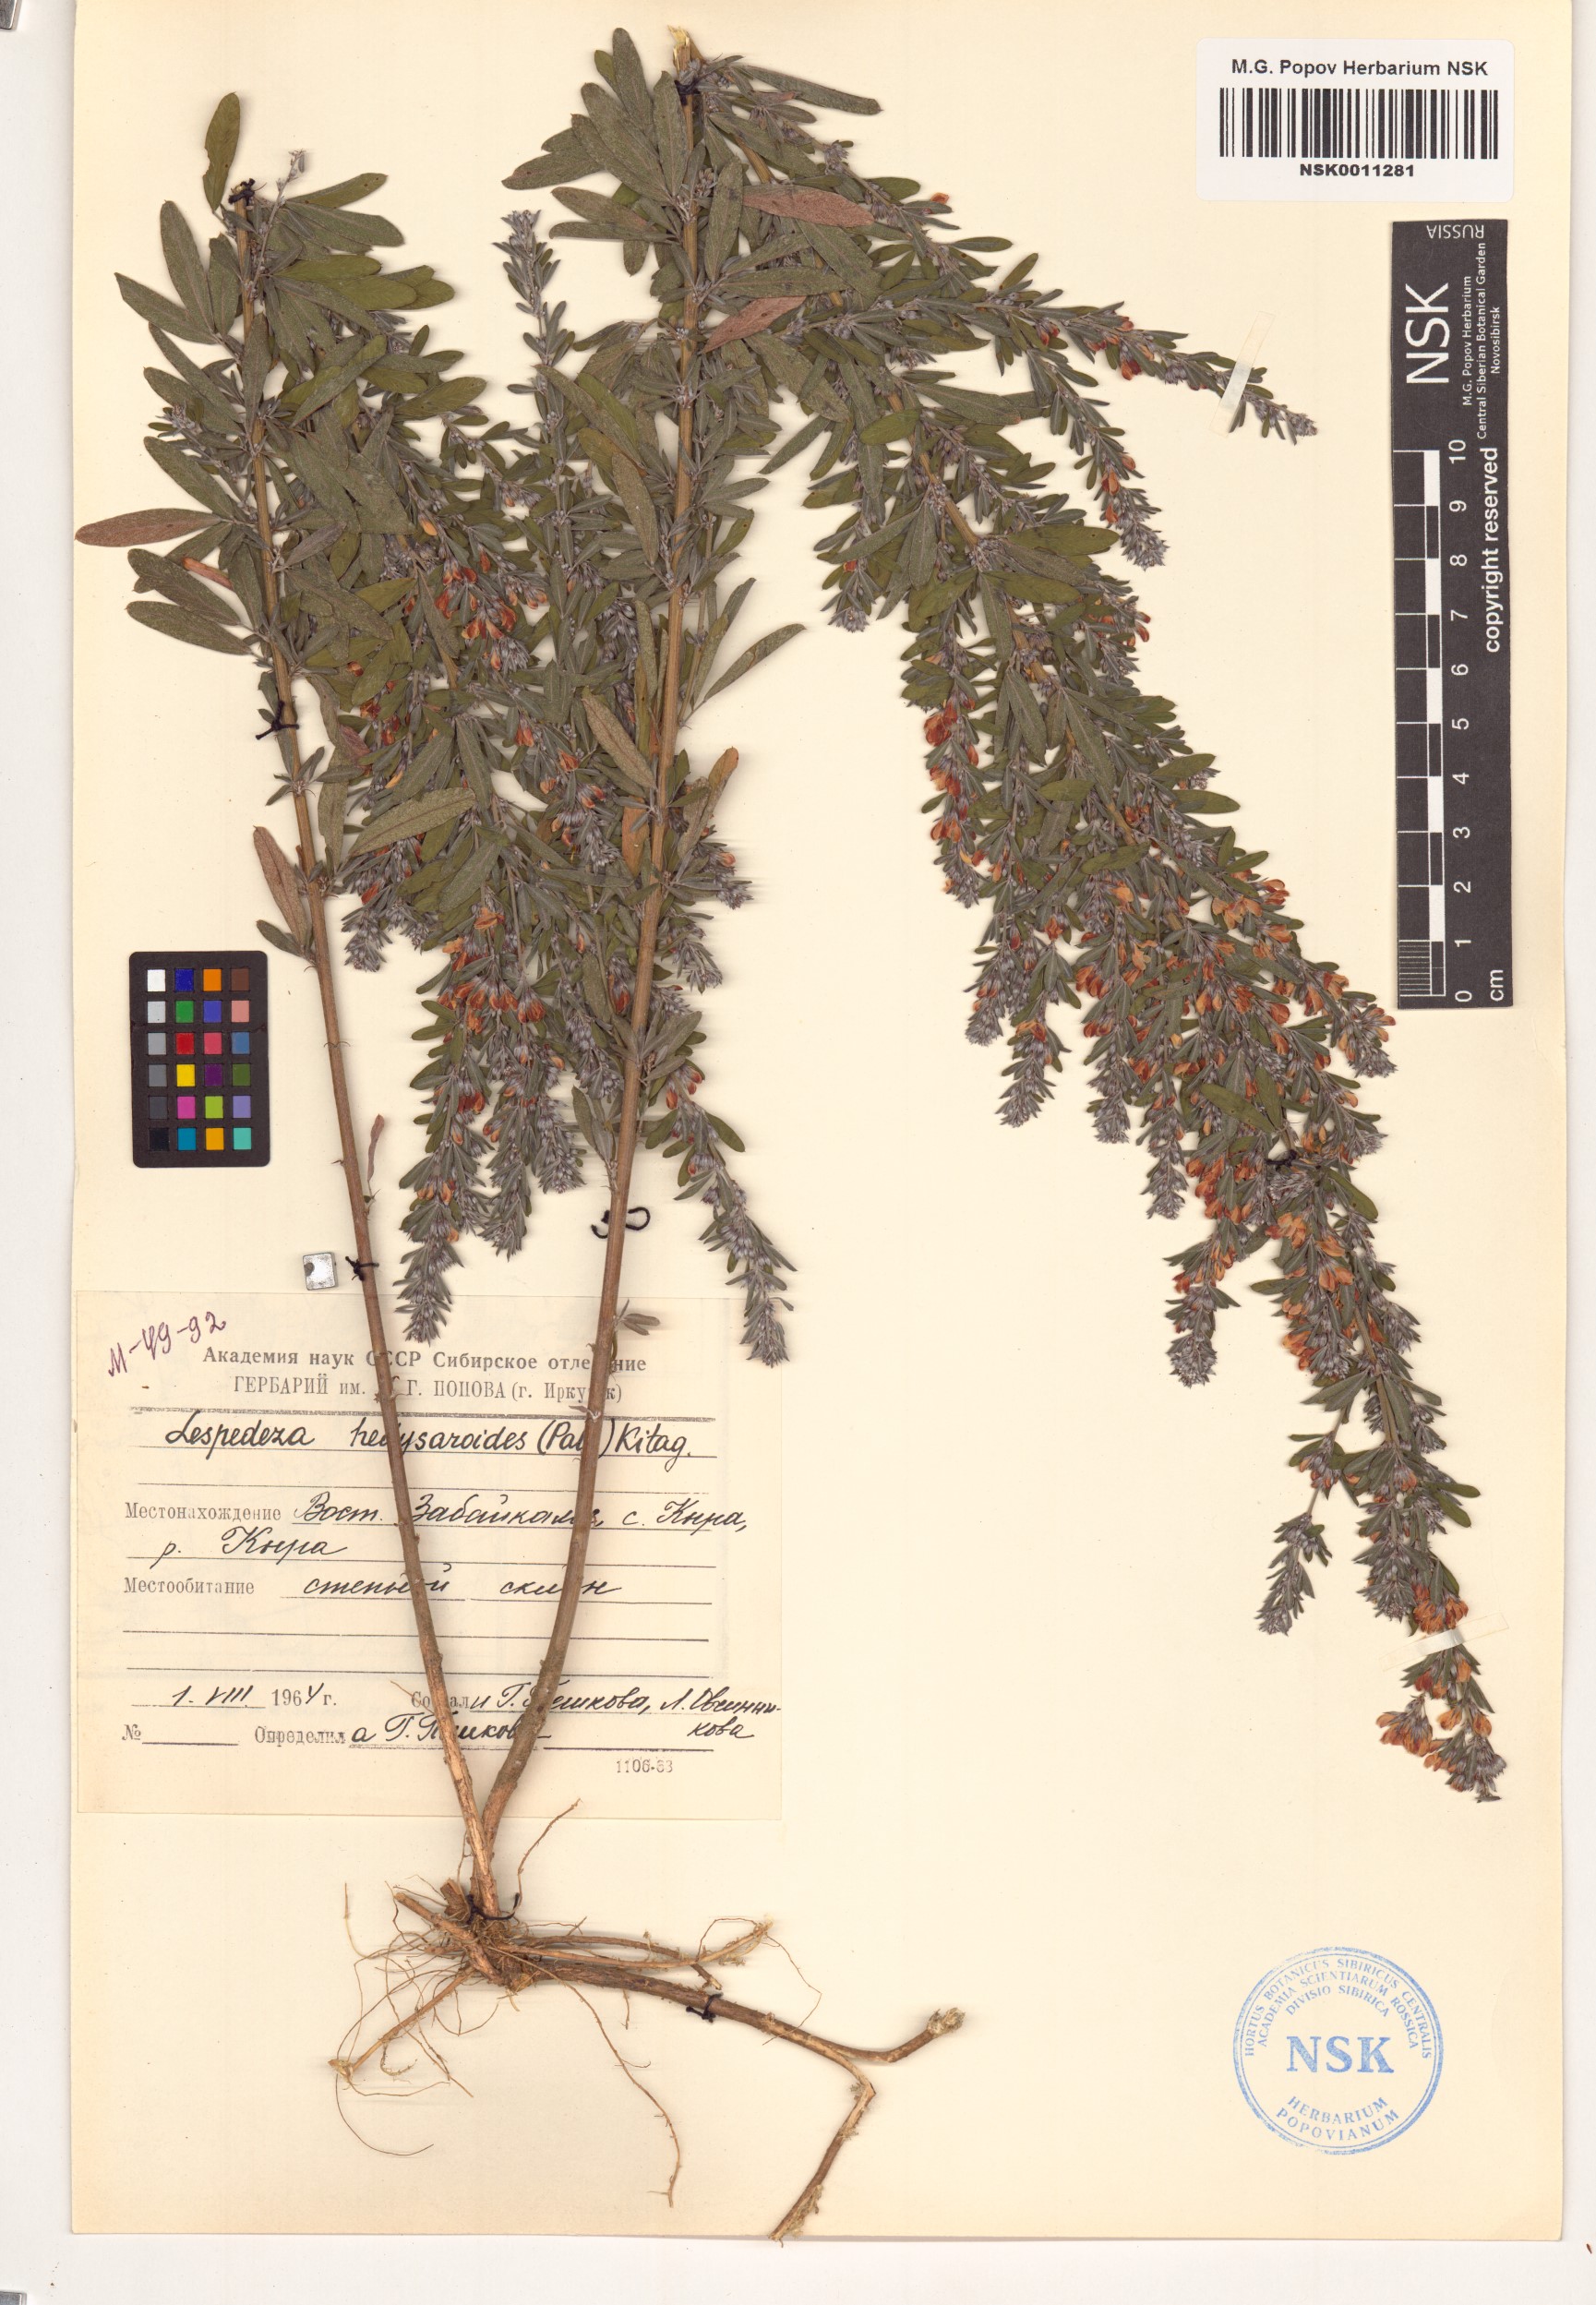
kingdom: Plantae
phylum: Tracheophyta
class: Magnoliopsida
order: Fabales
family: Fabaceae
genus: Lespedeza
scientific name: Lespedeza juncea
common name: Siberian lespedeza
